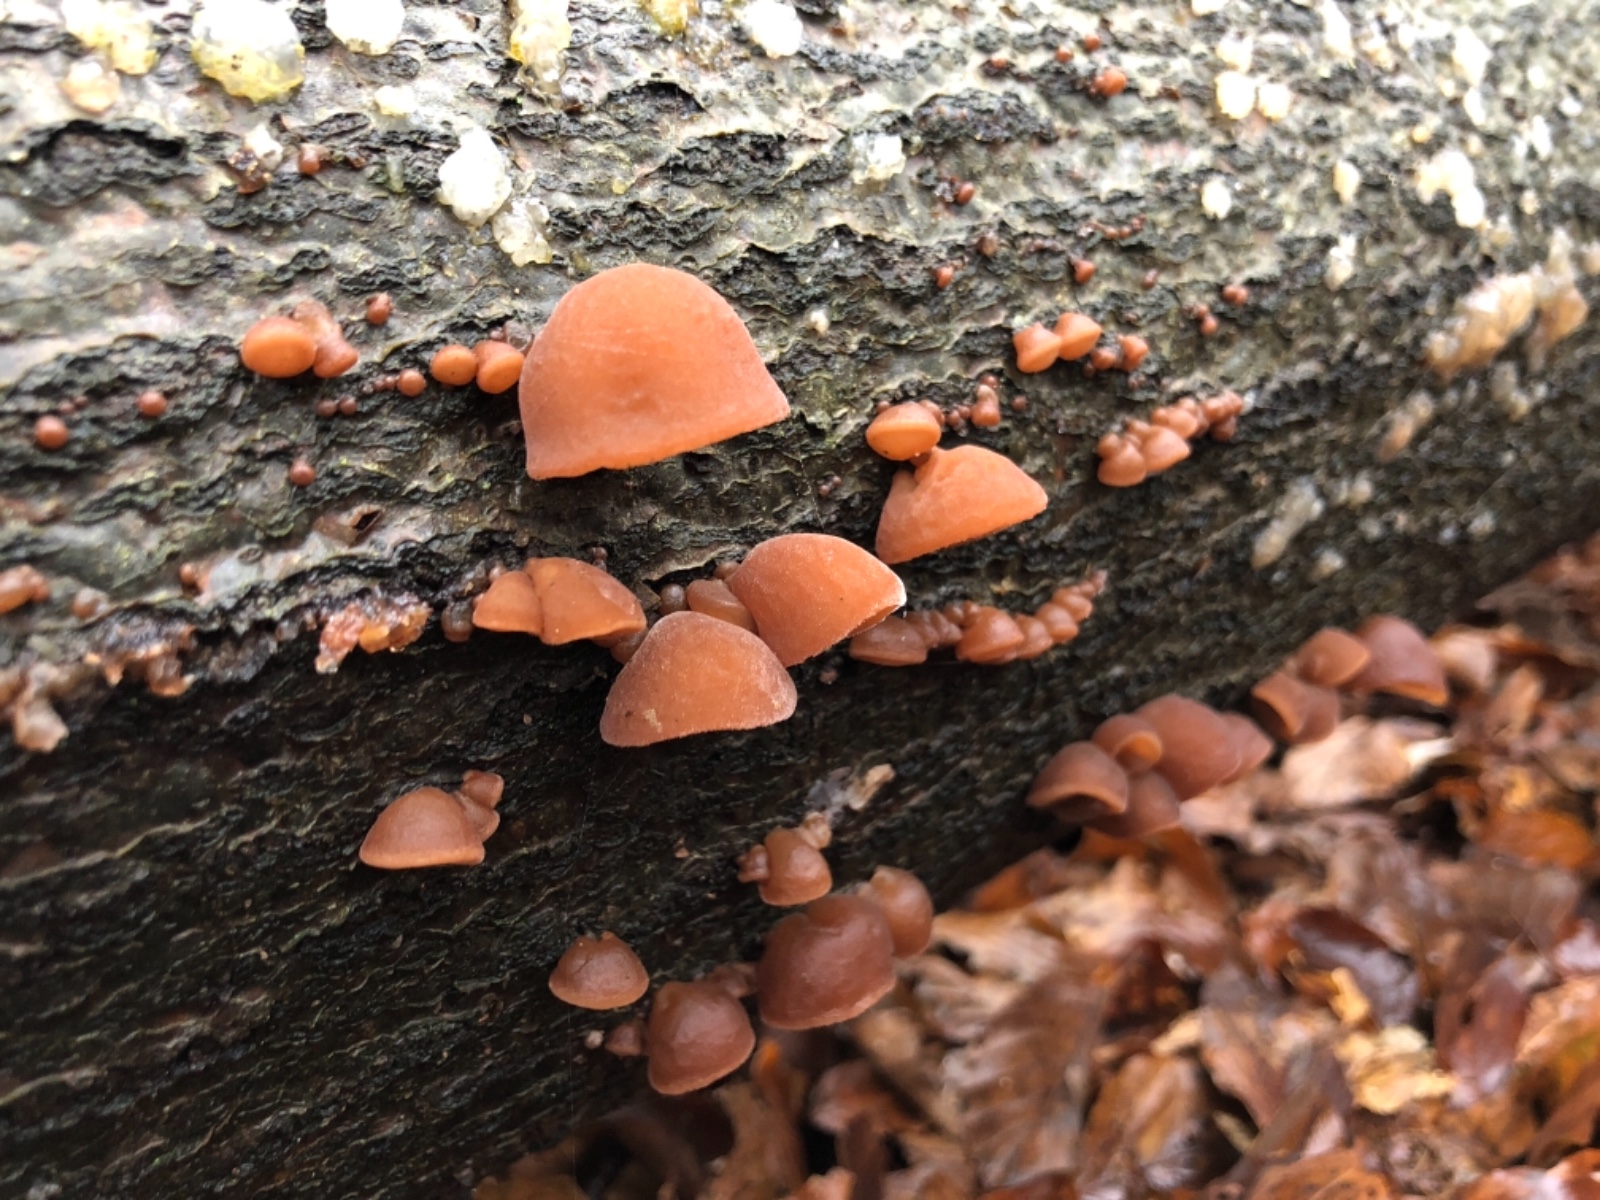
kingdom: Fungi
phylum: Basidiomycota
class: Agaricomycetes
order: Auriculariales
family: Auriculariaceae
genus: Auricularia
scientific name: Auricularia auricula-judae
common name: almindelig judasøre
